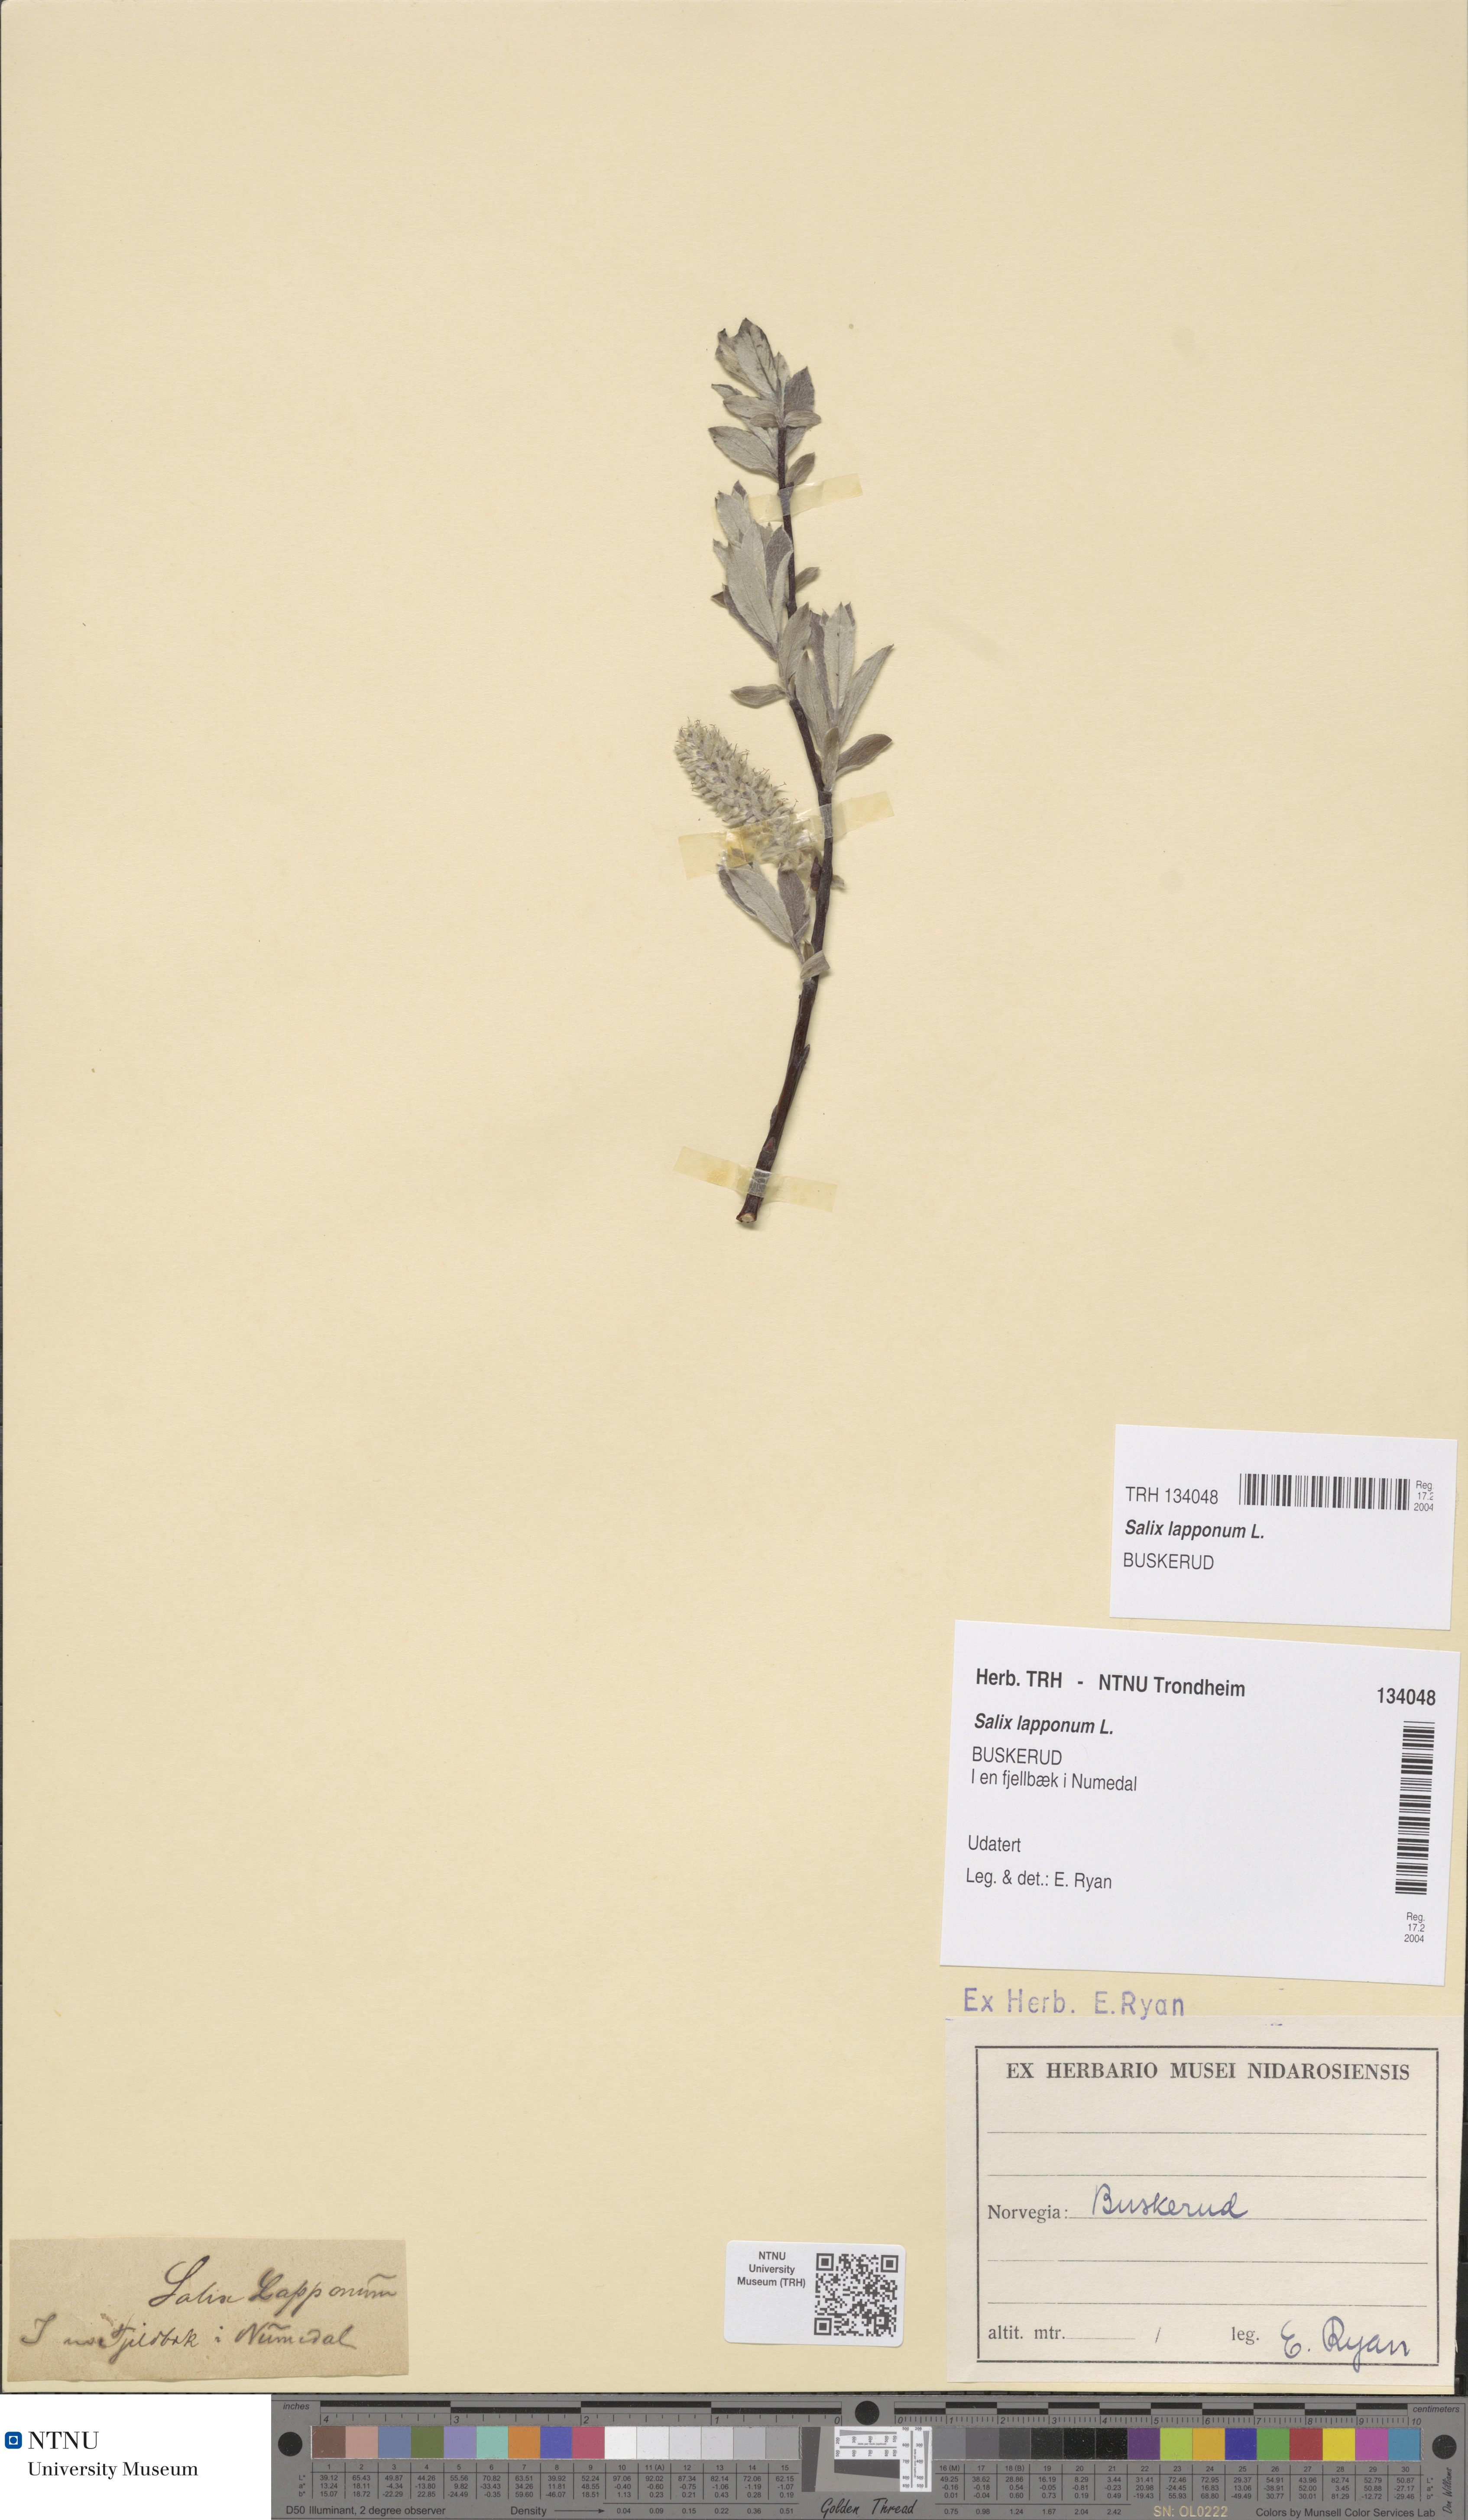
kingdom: Plantae
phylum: Tracheophyta
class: Magnoliopsida
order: Malpighiales
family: Salicaceae
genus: Salix
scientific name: Salix lapponum
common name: Downy willow
